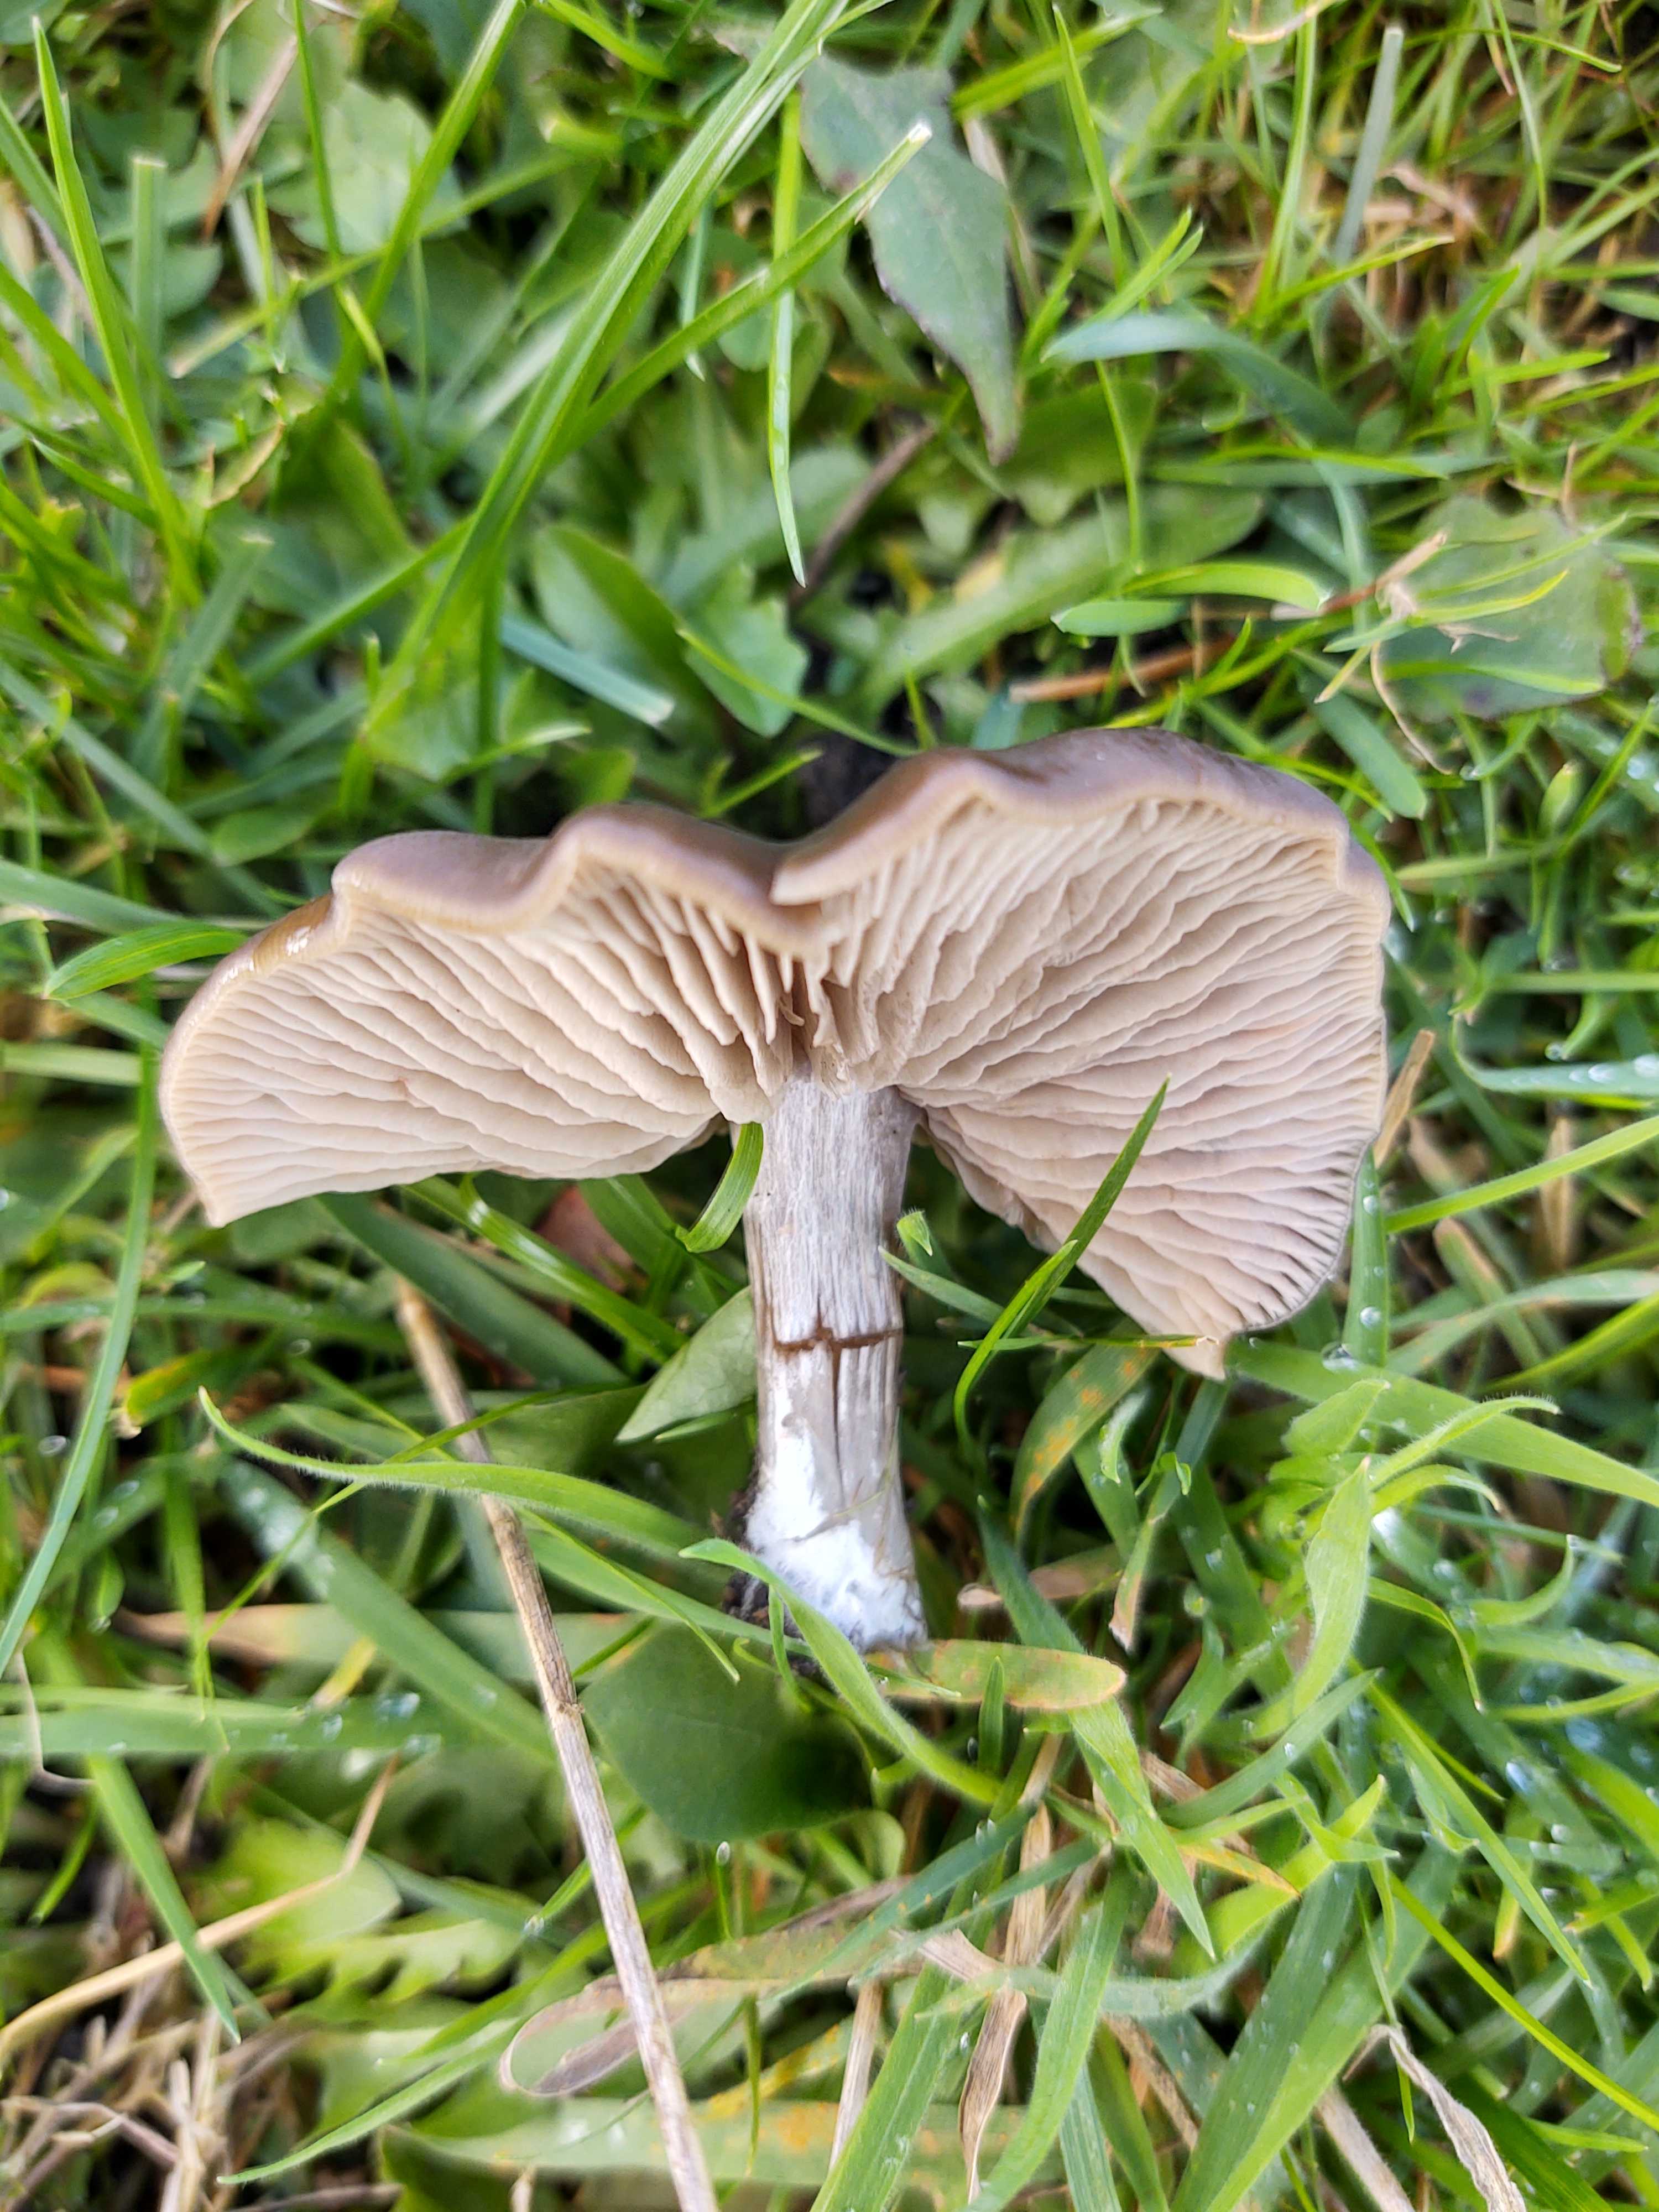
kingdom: Fungi
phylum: Basidiomycota
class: Agaricomycetes
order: Agaricales
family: Entolomataceae
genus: Entoloma
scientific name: Entoloma sericeum
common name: silkeglinsende rødblad
